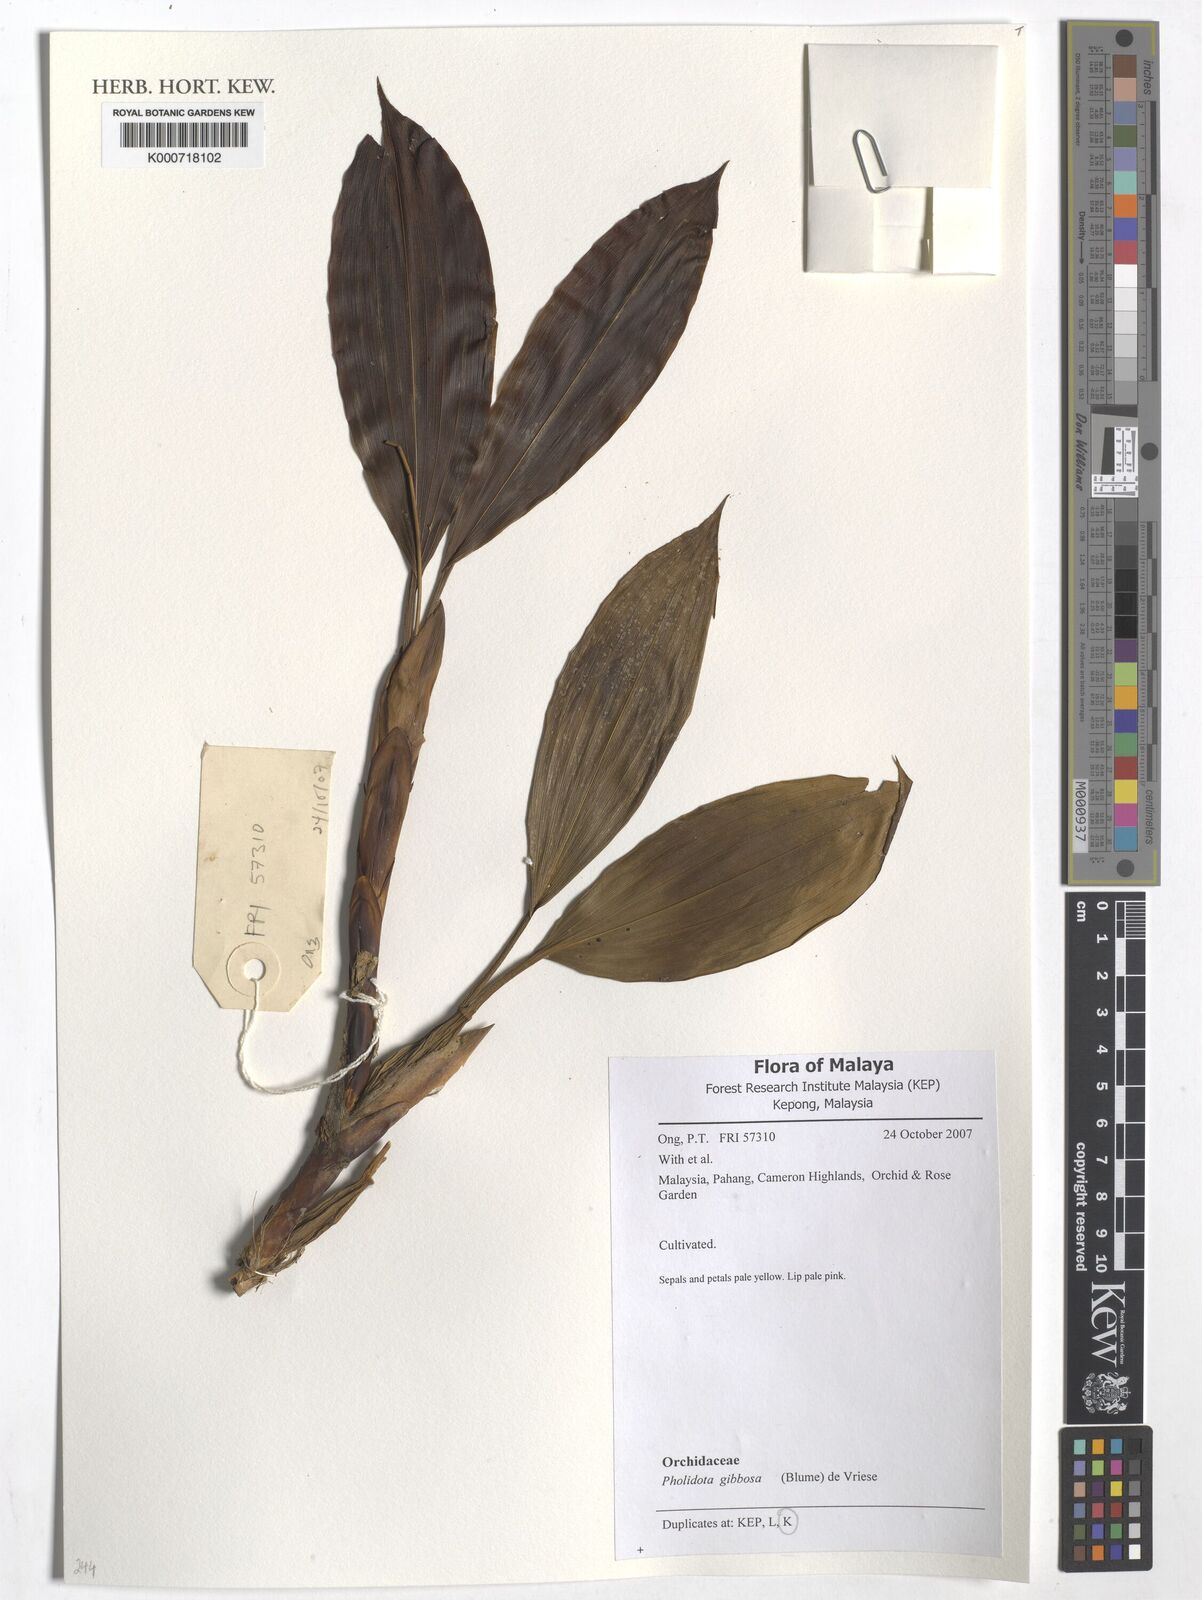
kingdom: Plantae
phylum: Tracheophyta
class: Liliopsida
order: Asparagales
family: Orchidaceae
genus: Coelogyne
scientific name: Coelogyne gibbosa
